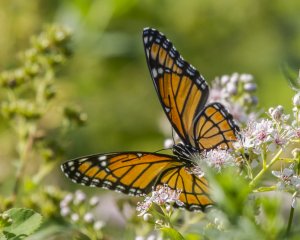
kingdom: Animalia
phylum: Arthropoda
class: Insecta
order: Lepidoptera
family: Nymphalidae
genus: Limenitis
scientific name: Limenitis archippus
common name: Viceroy
